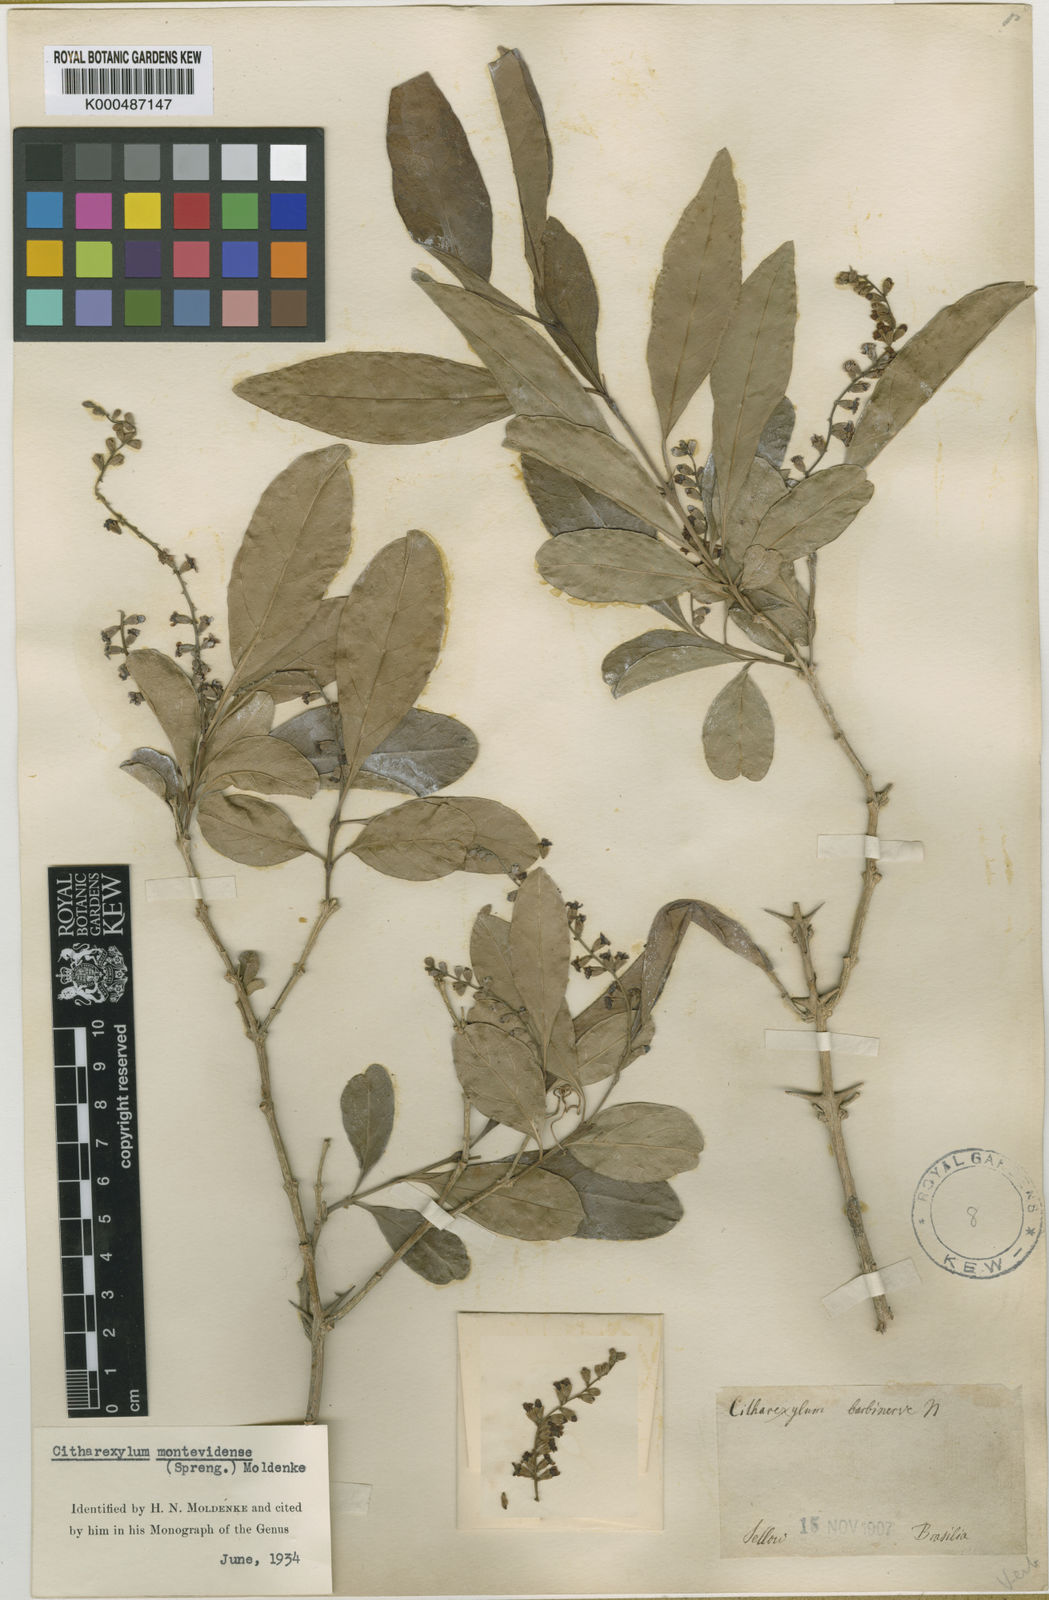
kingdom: Plantae
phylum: Tracheophyta
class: Magnoliopsida
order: Lamiales
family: Verbenaceae
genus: Citharexylum
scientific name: Citharexylum montevidense
